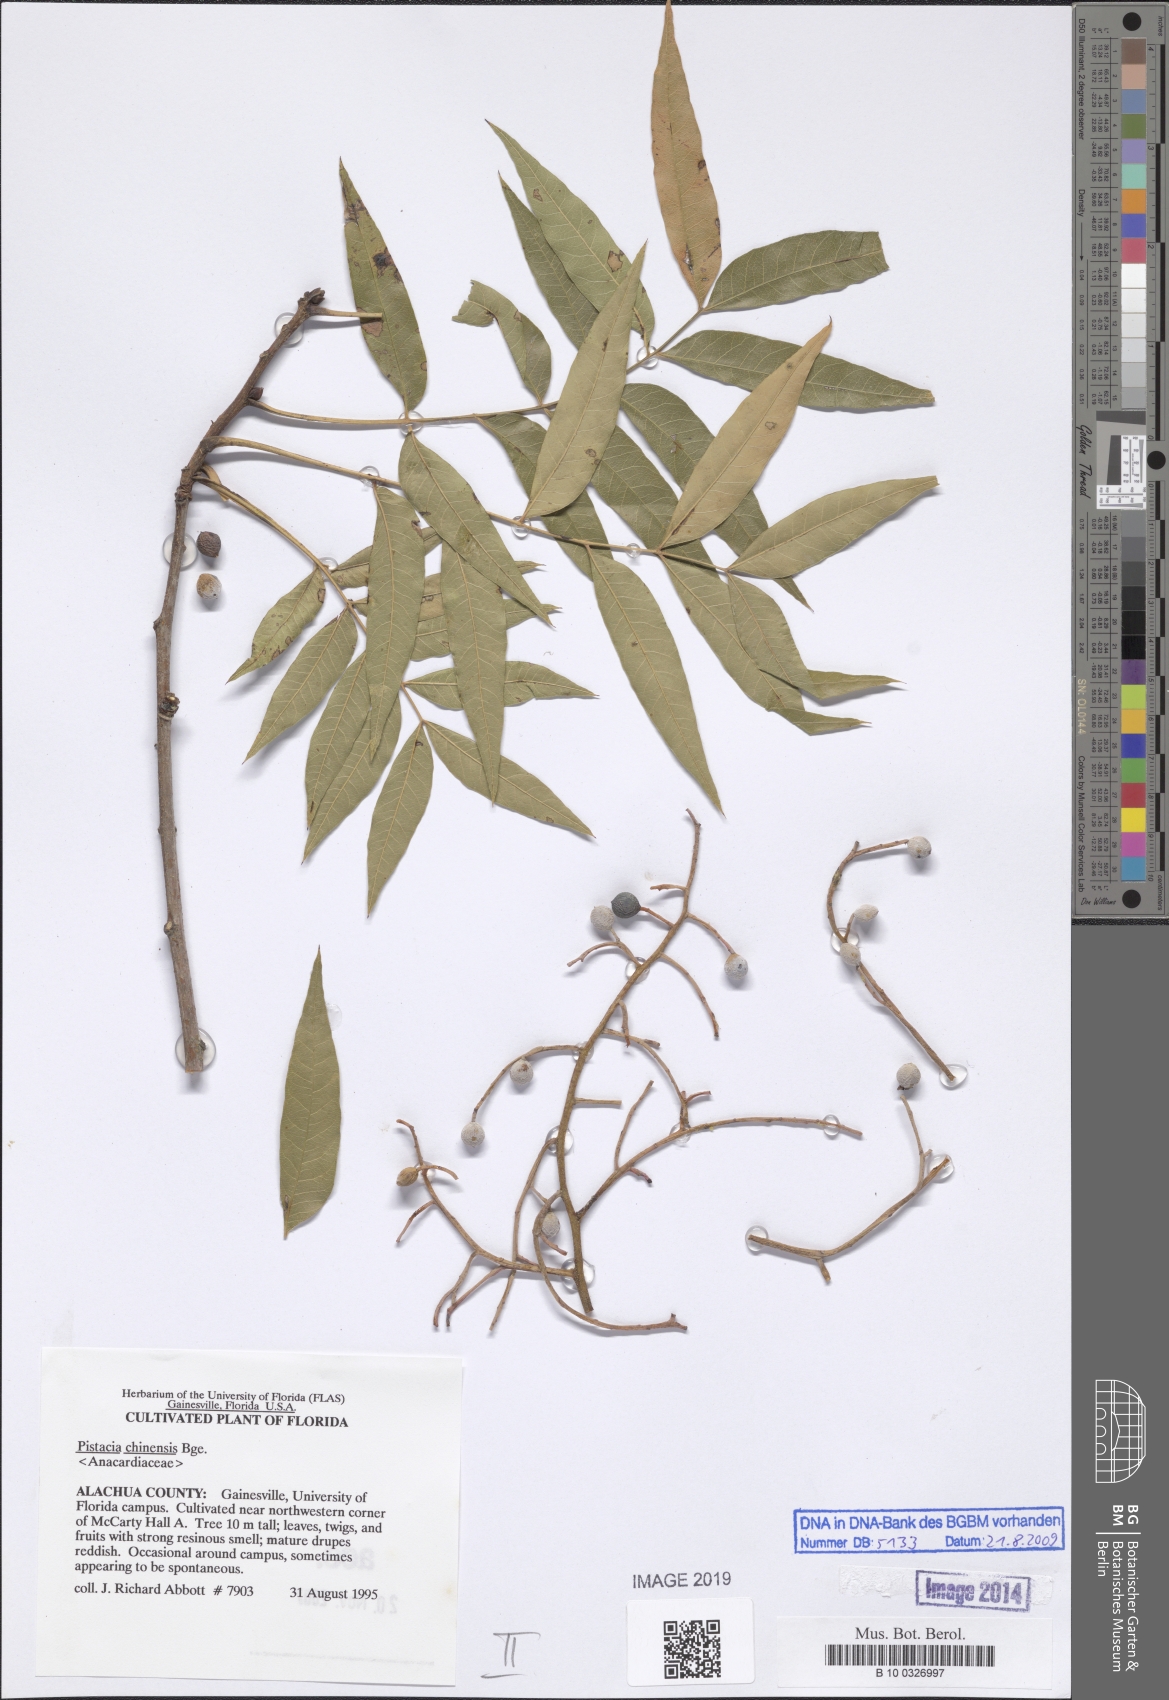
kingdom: Plantae
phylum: Tracheophyta
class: Magnoliopsida
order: Sapindales
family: Anacardiaceae
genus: Pistacia
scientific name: Pistacia chinensis
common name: Chinese pistache
